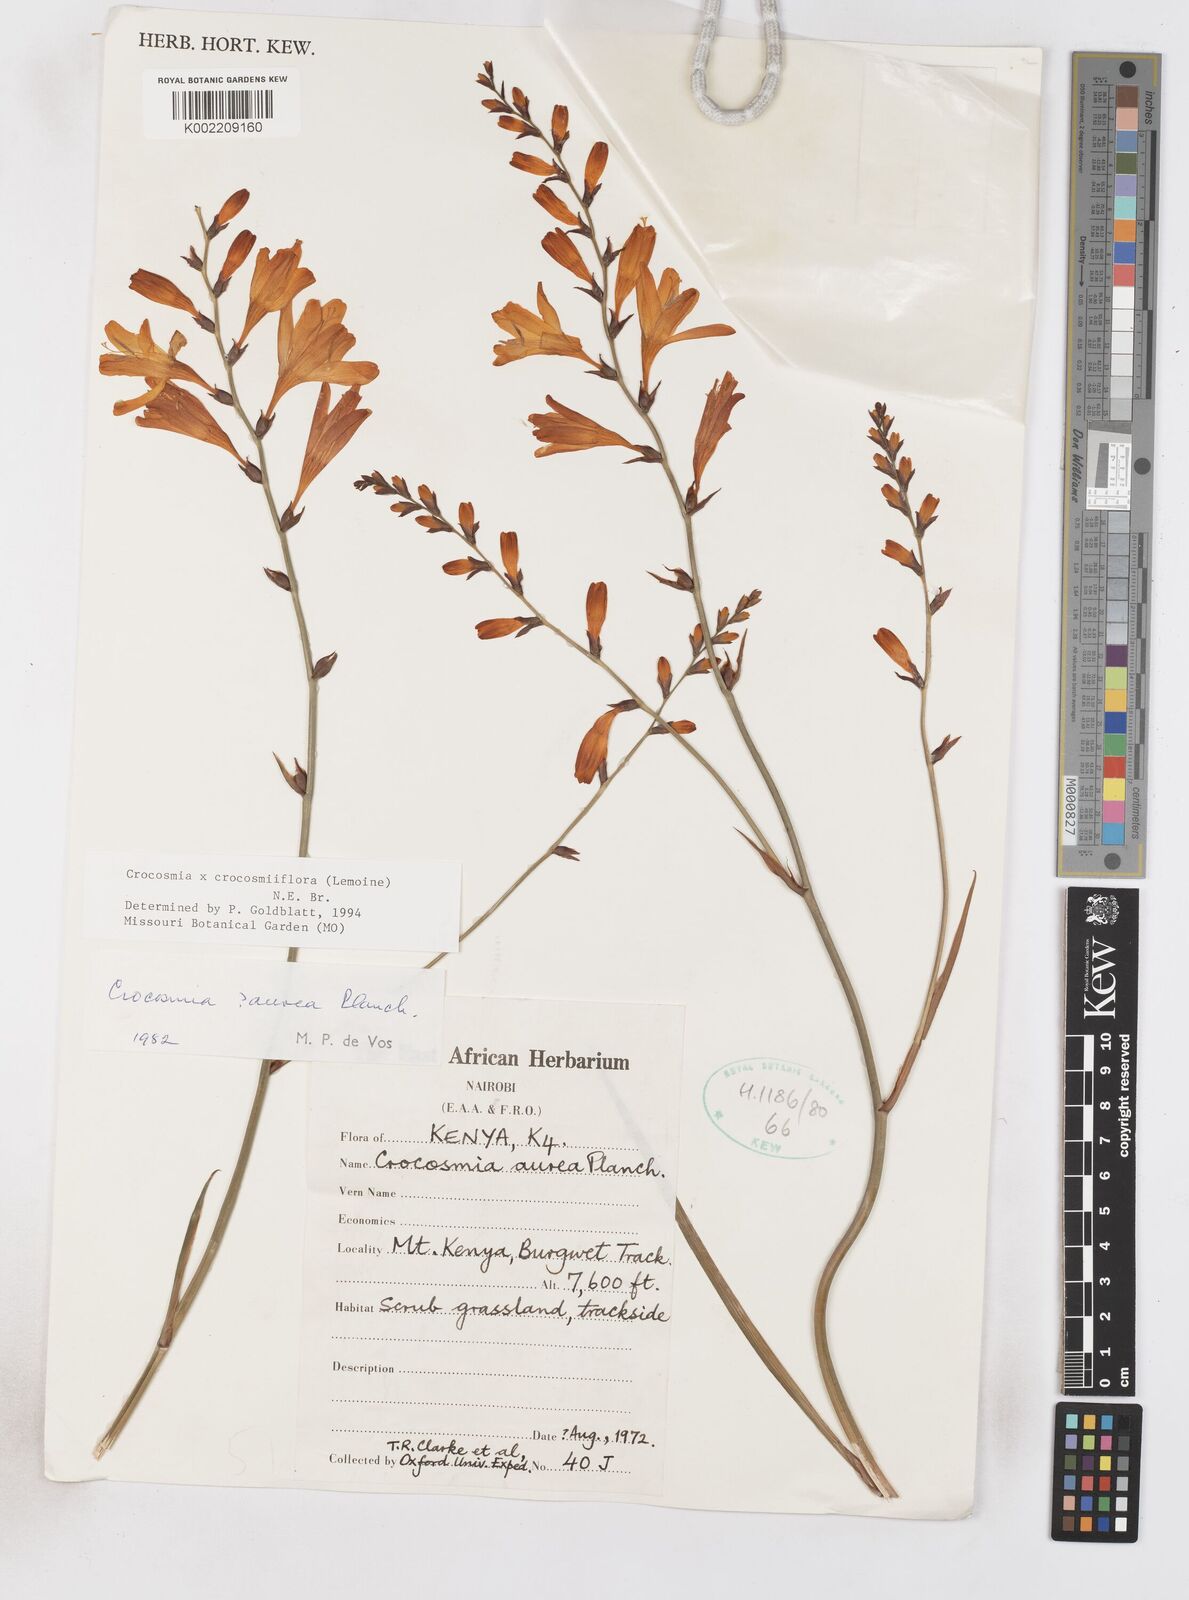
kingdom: Plantae
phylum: Tracheophyta
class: Liliopsida
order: Asparagales
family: Iridaceae
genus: Crocosmia
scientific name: Crocosmia aurea
